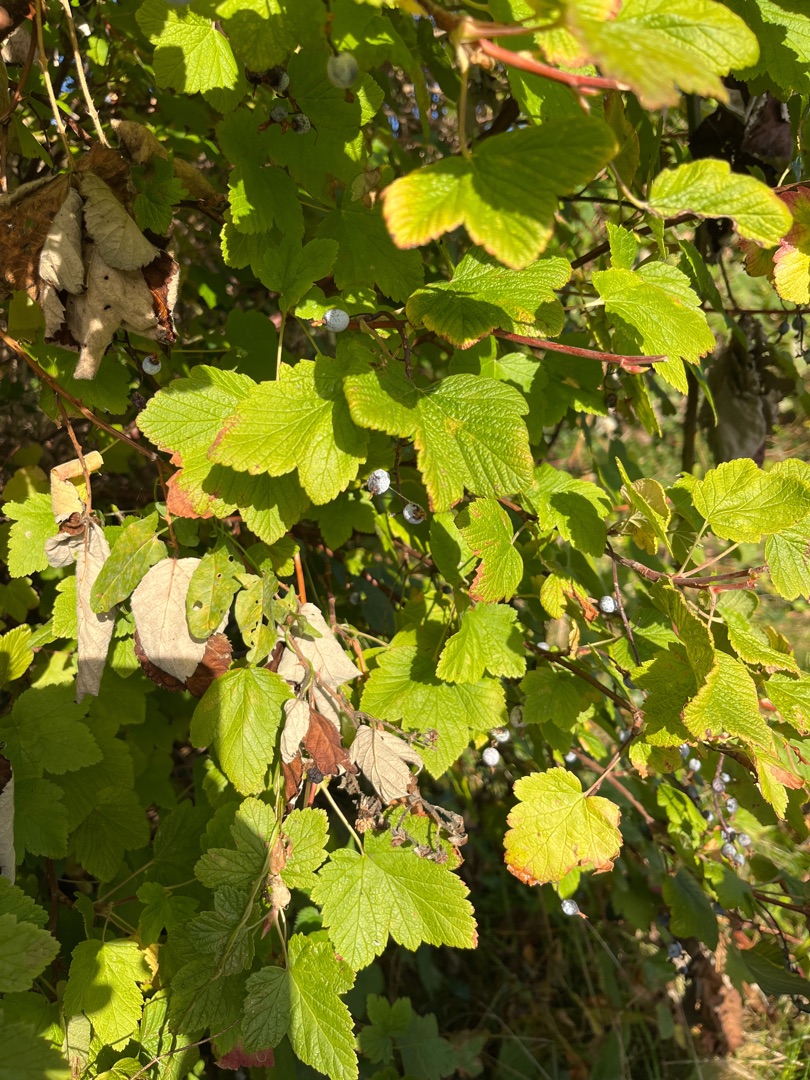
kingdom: Plantae
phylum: Tracheophyta
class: Magnoliopsida
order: Saxifragales
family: Grossulariaceae
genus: Ribes
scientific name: Ribes sanguineum
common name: Blod-ribs
